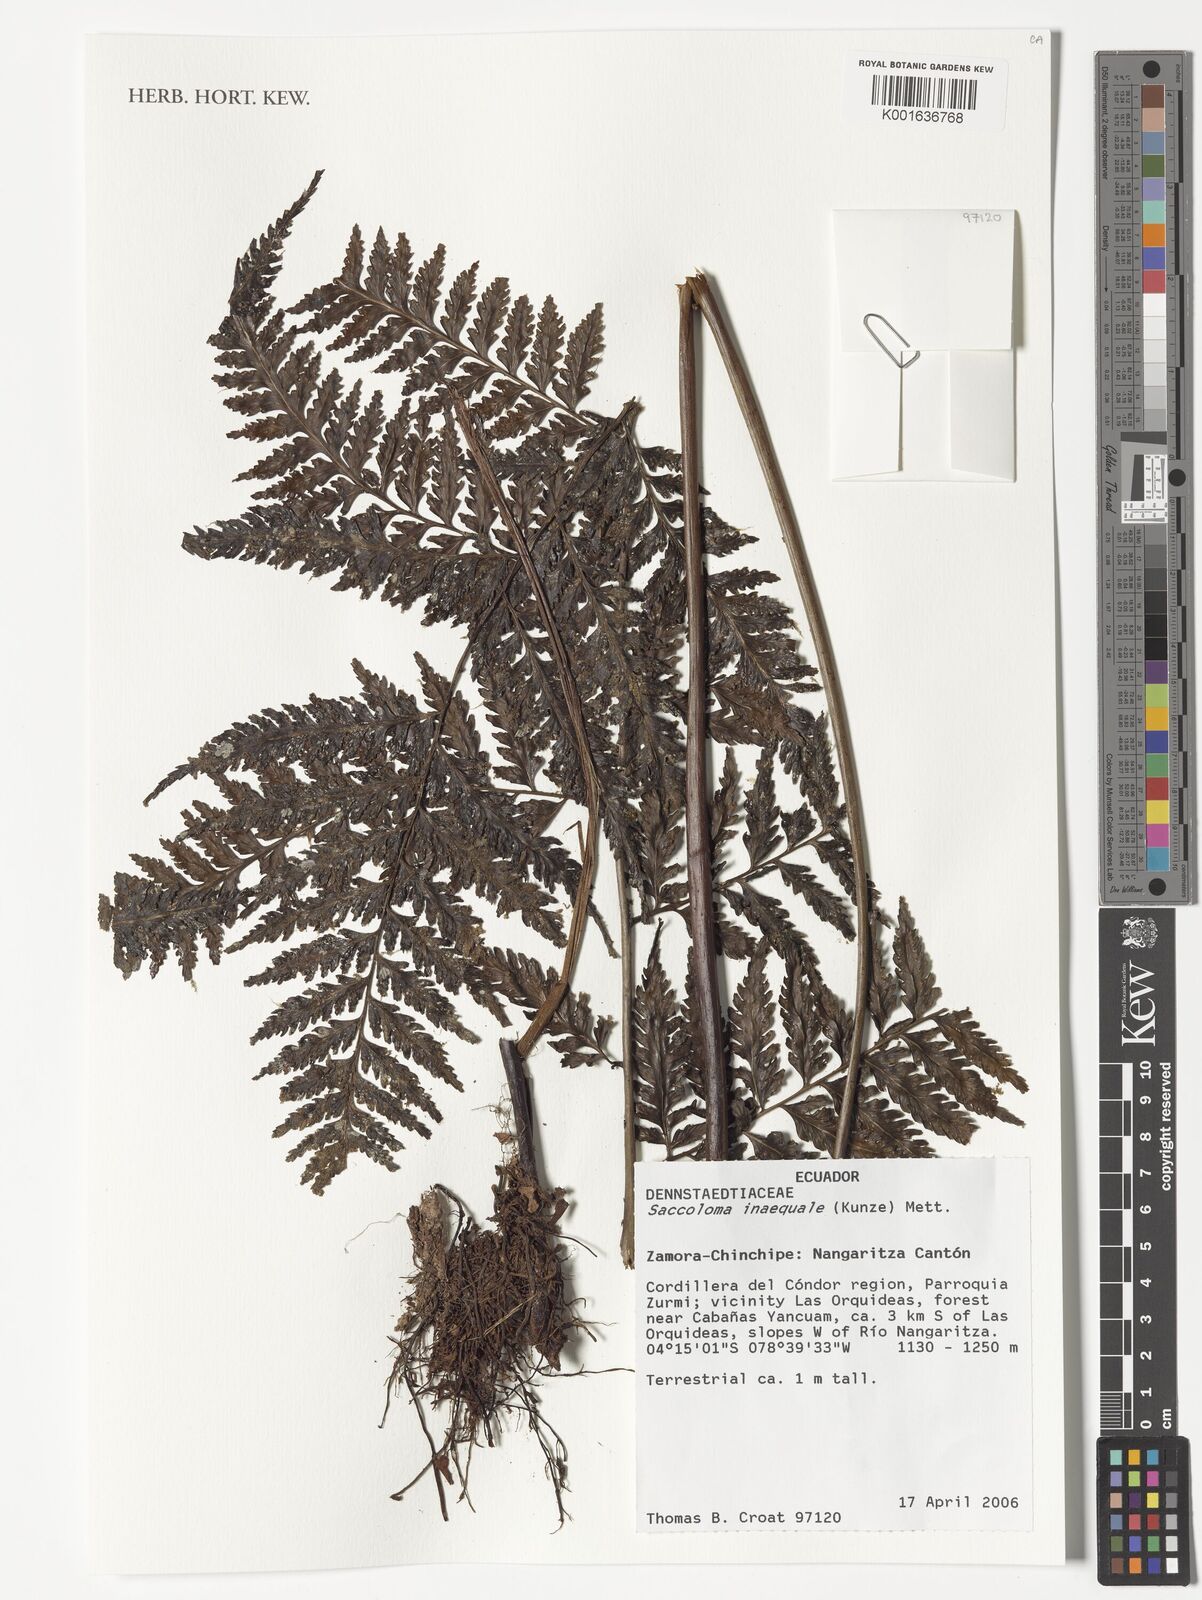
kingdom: Plantae
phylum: Tracheophyta
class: Polypodiopsida
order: Polypodiales
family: Saccolomataceae
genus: Saccoloma
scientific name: Saccoloma inaequale
